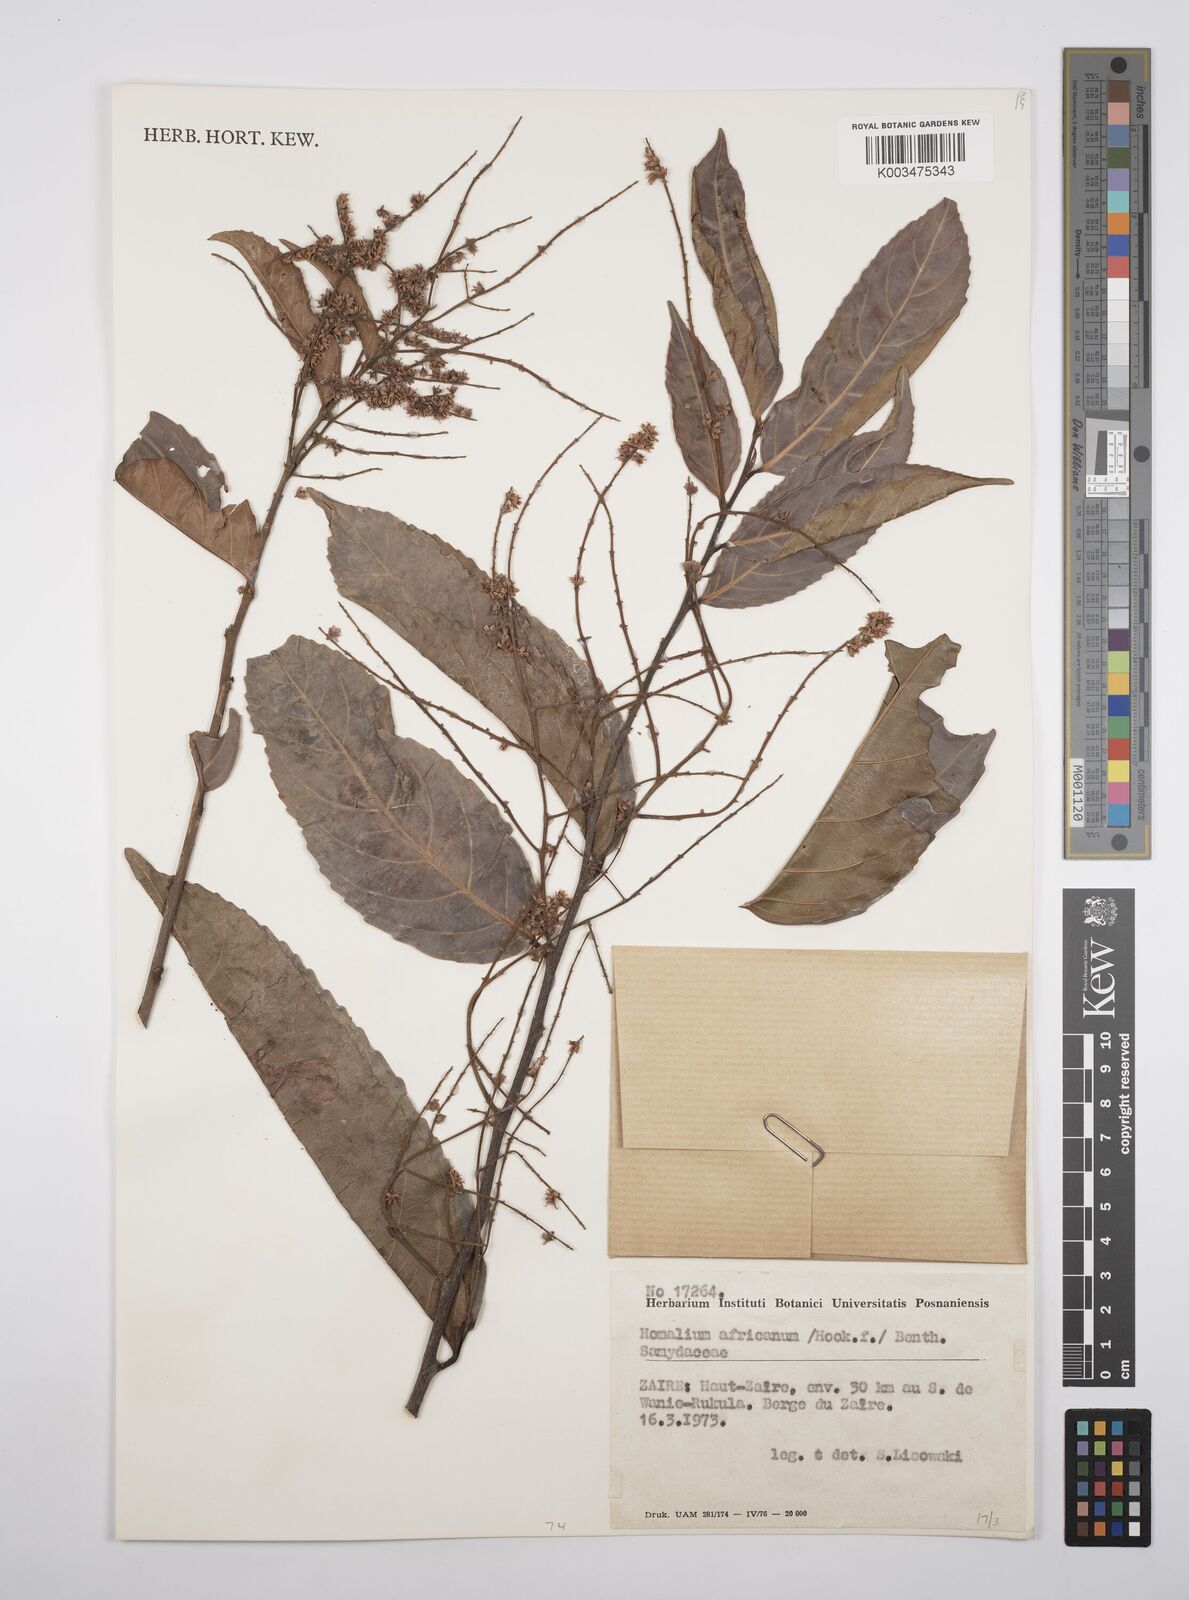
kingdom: Plantae
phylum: Tracheophyta
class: Magnoliopsida
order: Malpighiales
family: Salicaceae
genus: Homalium
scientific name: Homalium africanum
